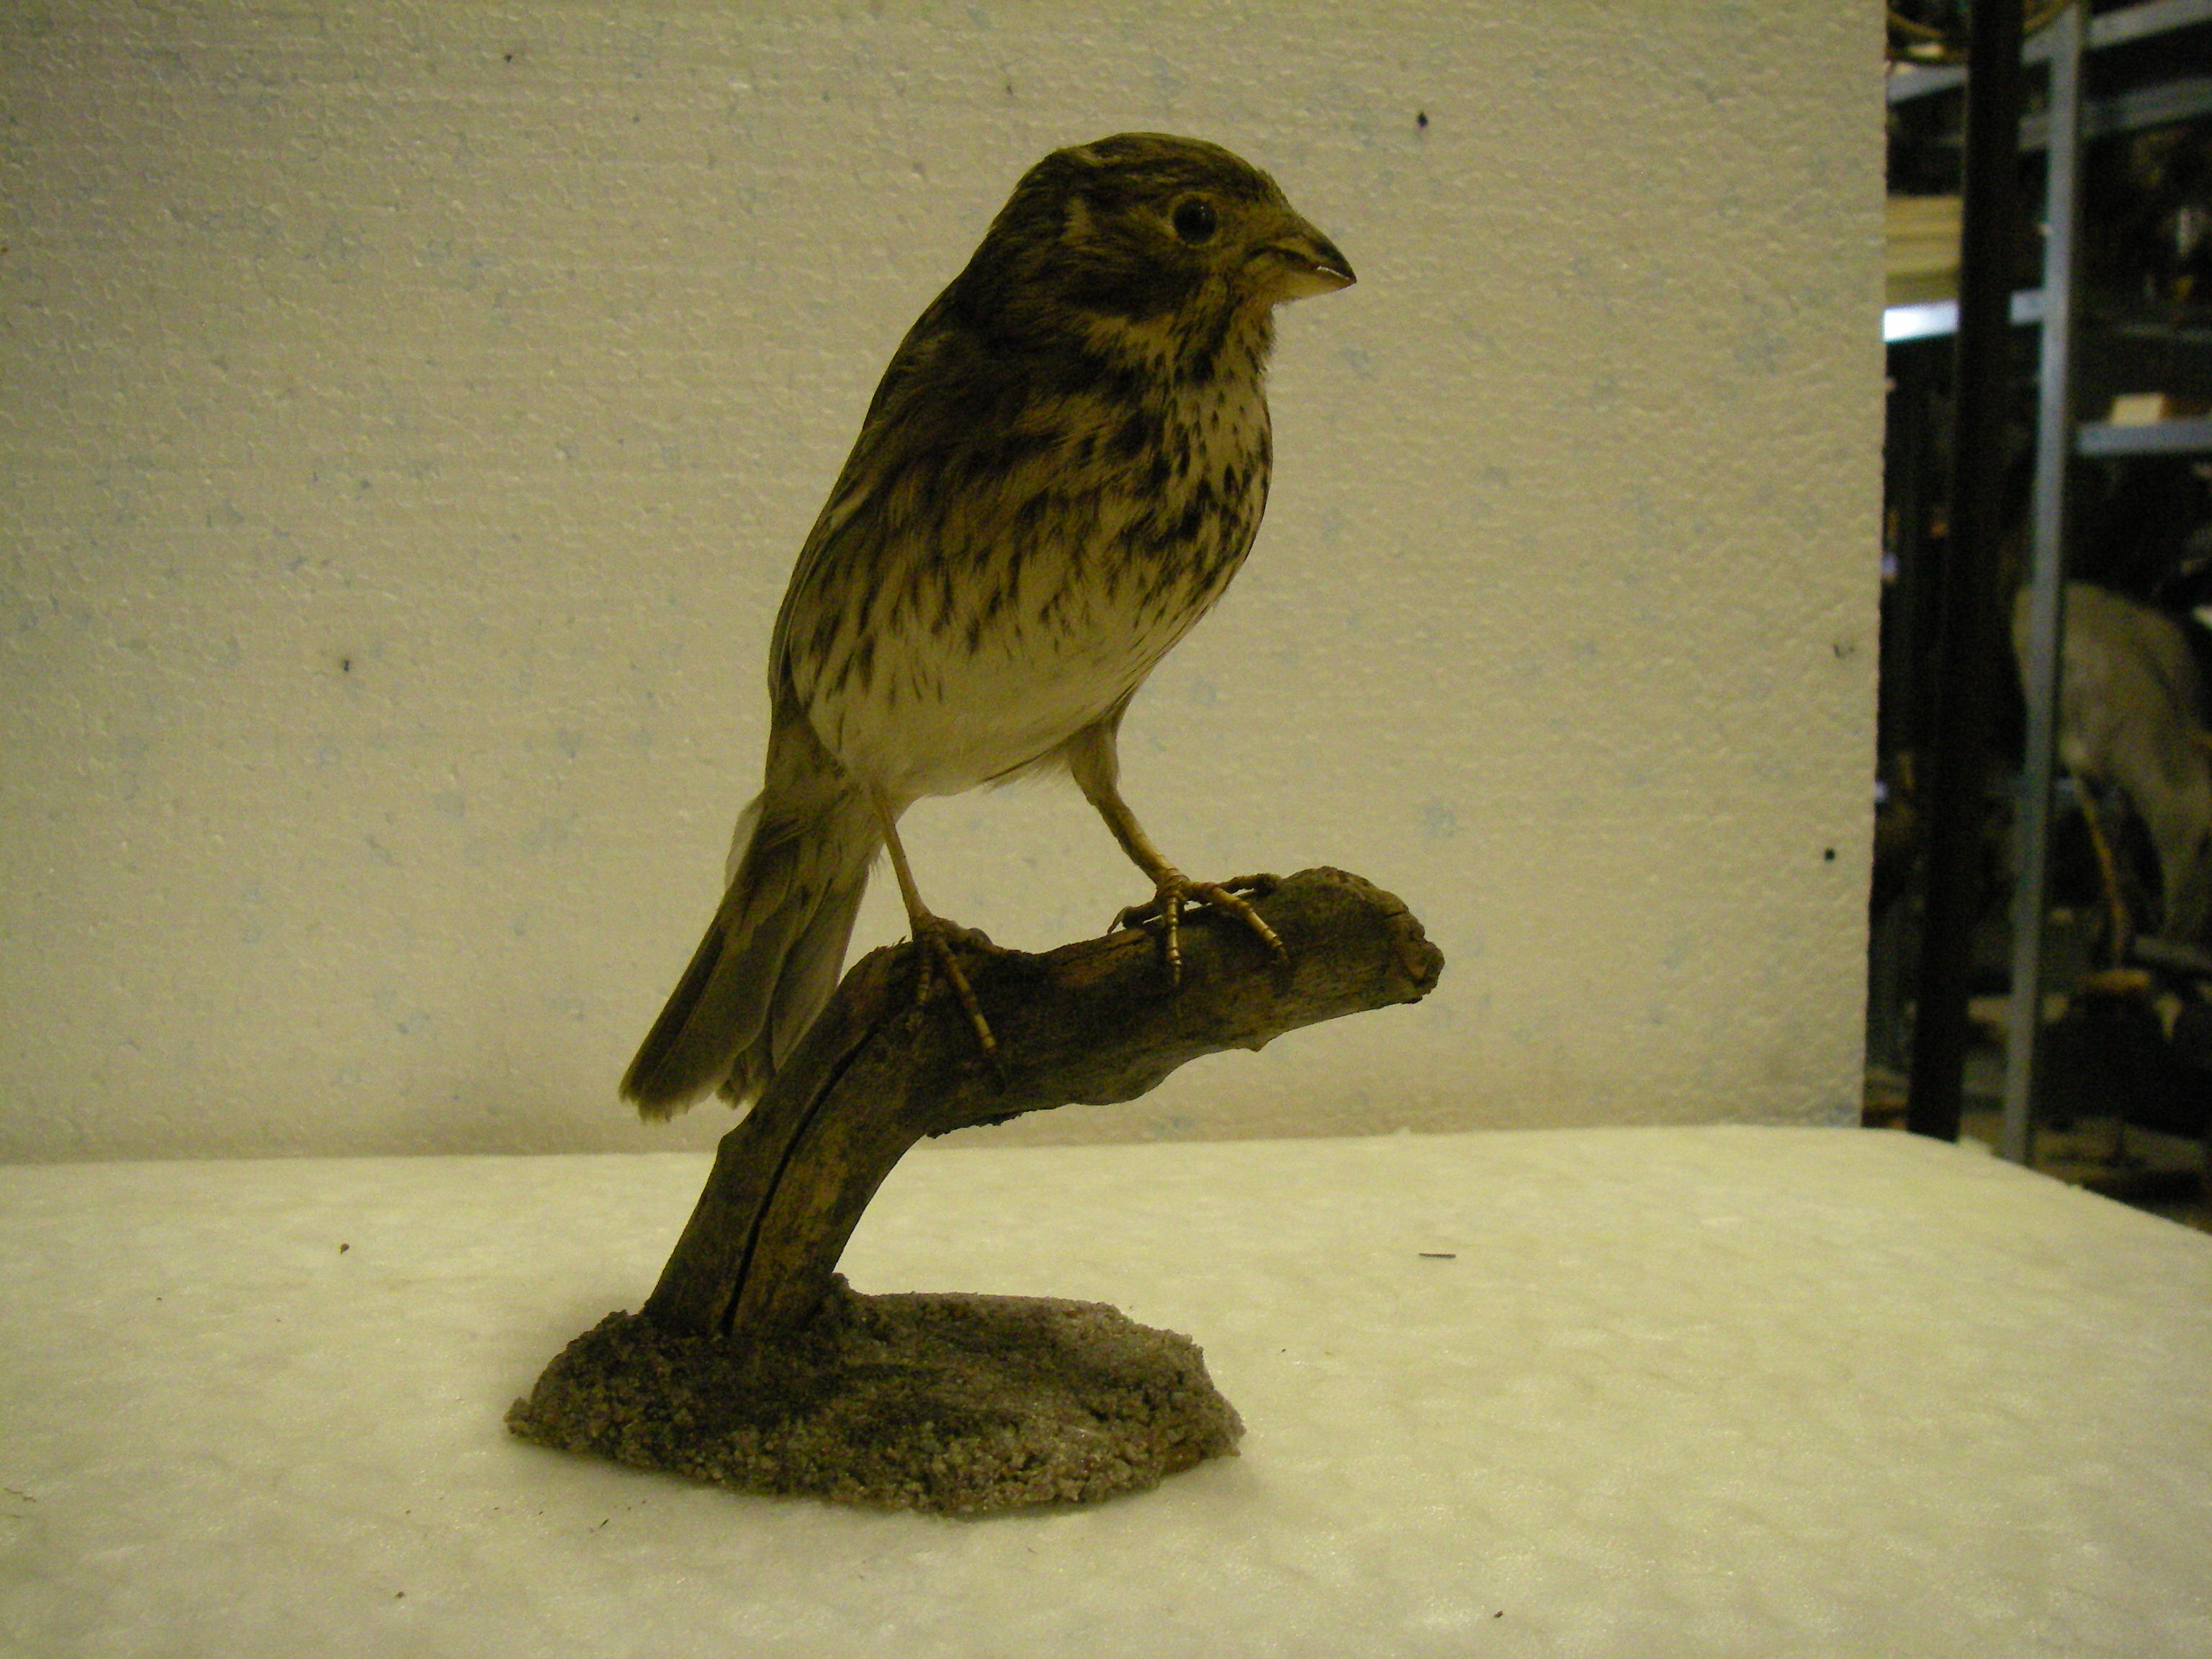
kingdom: Animalia
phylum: Chordata
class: Aves
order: Passeriformes
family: Emberizidae
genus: Emberiza
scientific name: Emberiza calandra
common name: Corn bunting
